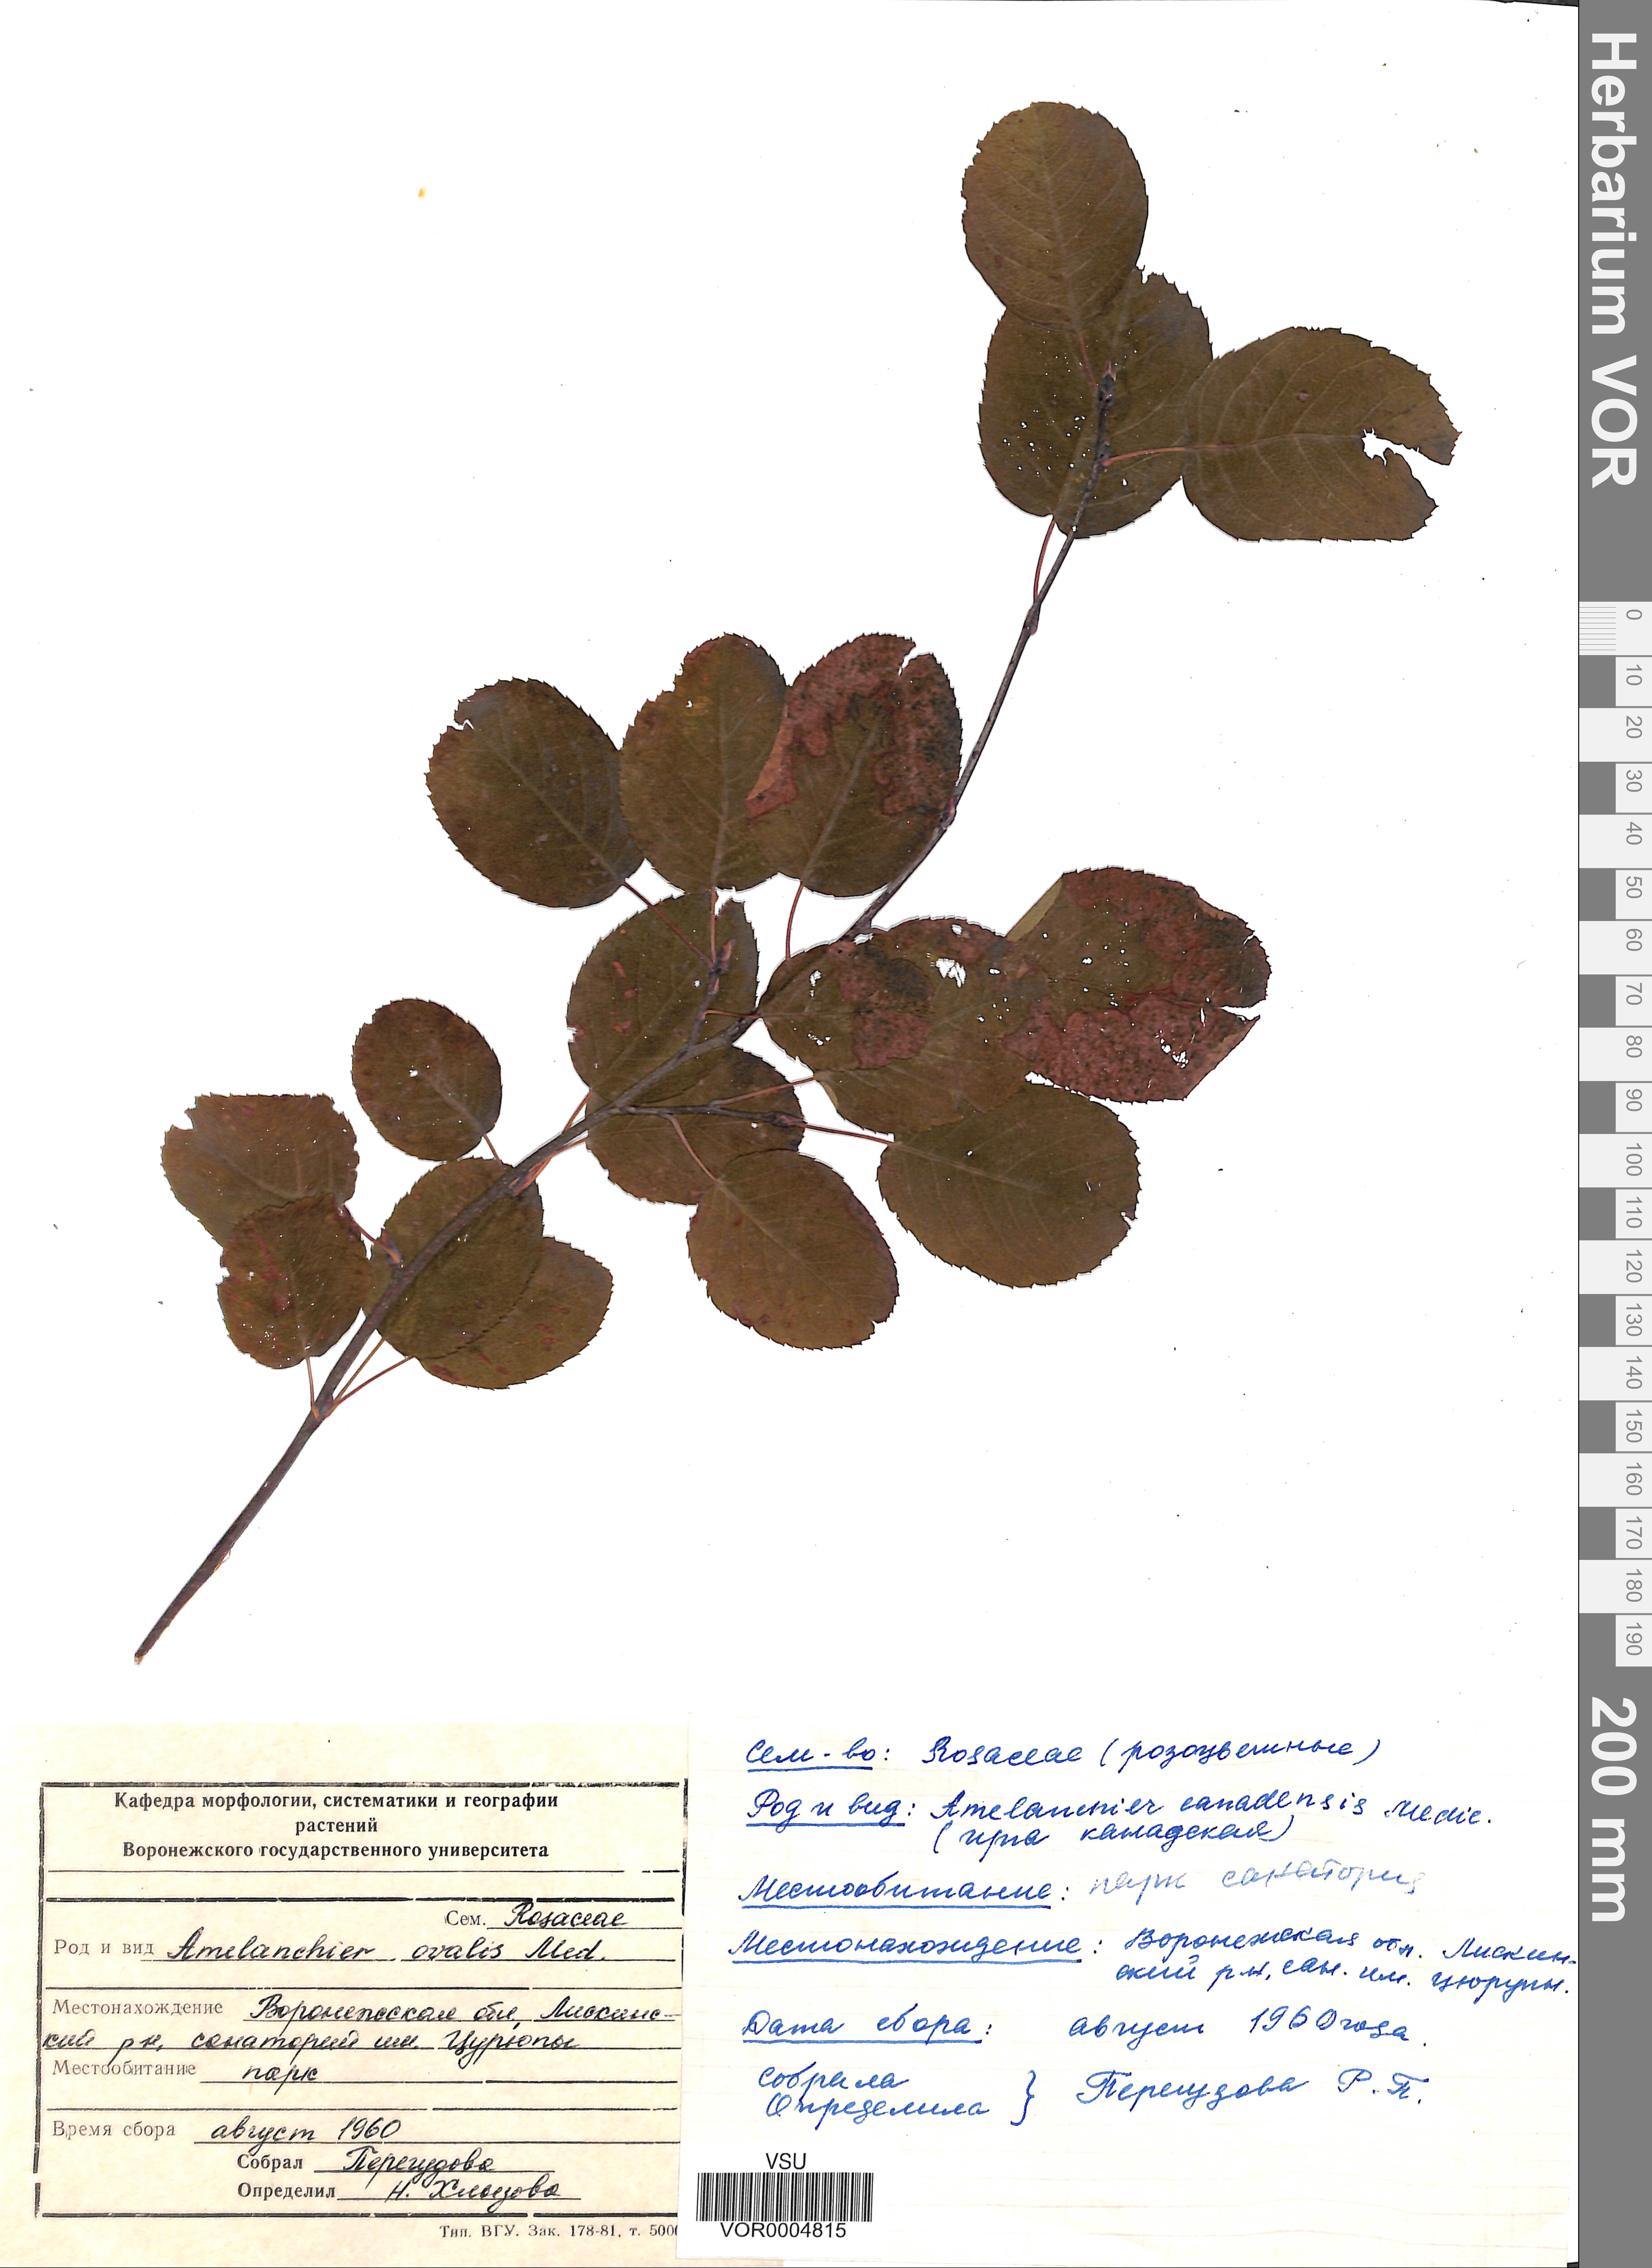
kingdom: Plantae
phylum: Tracheophyta
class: Magnoliopsida
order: Rosales
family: Rosaceae
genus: Amelanchier
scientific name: Amelanchier ovalis
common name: Serviceberry
